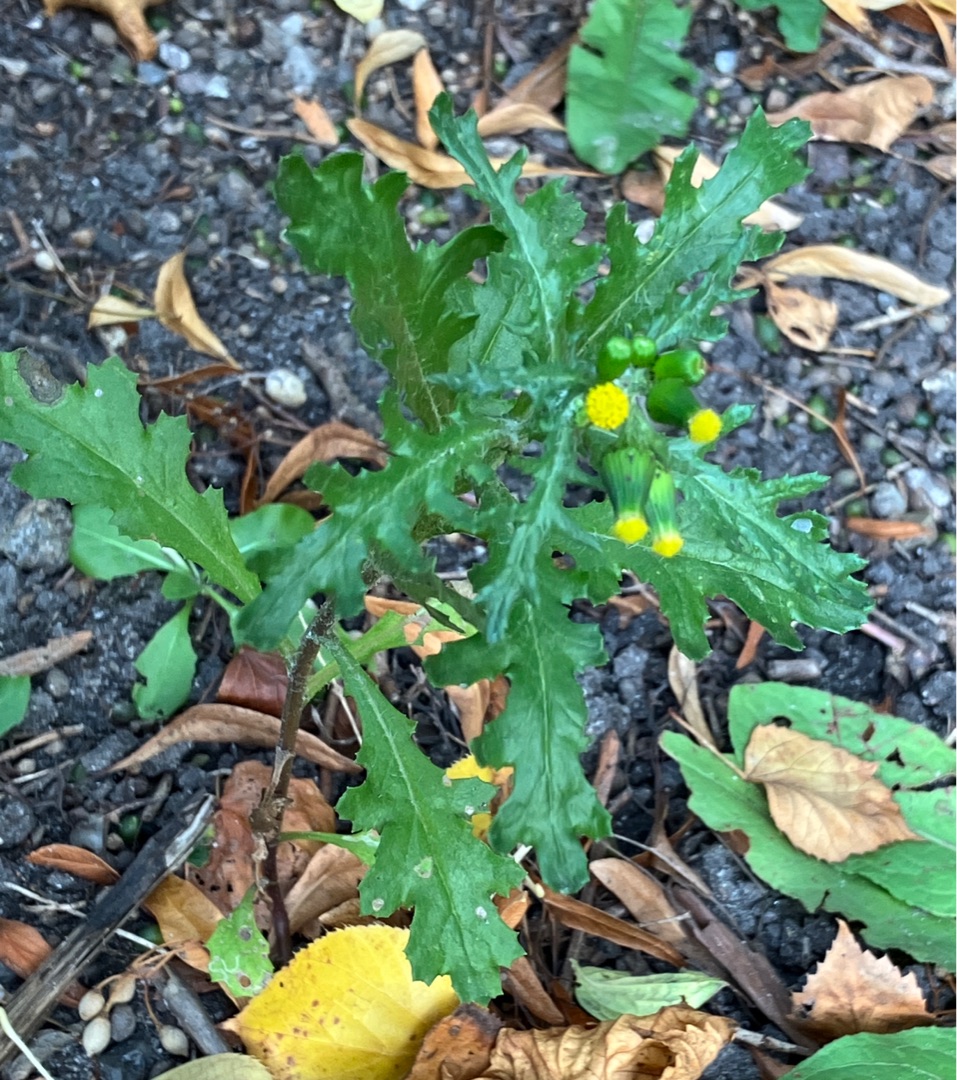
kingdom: Plantae
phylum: Tracheophyta
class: Magnoliopsida
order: Asterales
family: Asteraceae
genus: Senecio
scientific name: Senecio vulgaris
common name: Almindelig brandbæger
